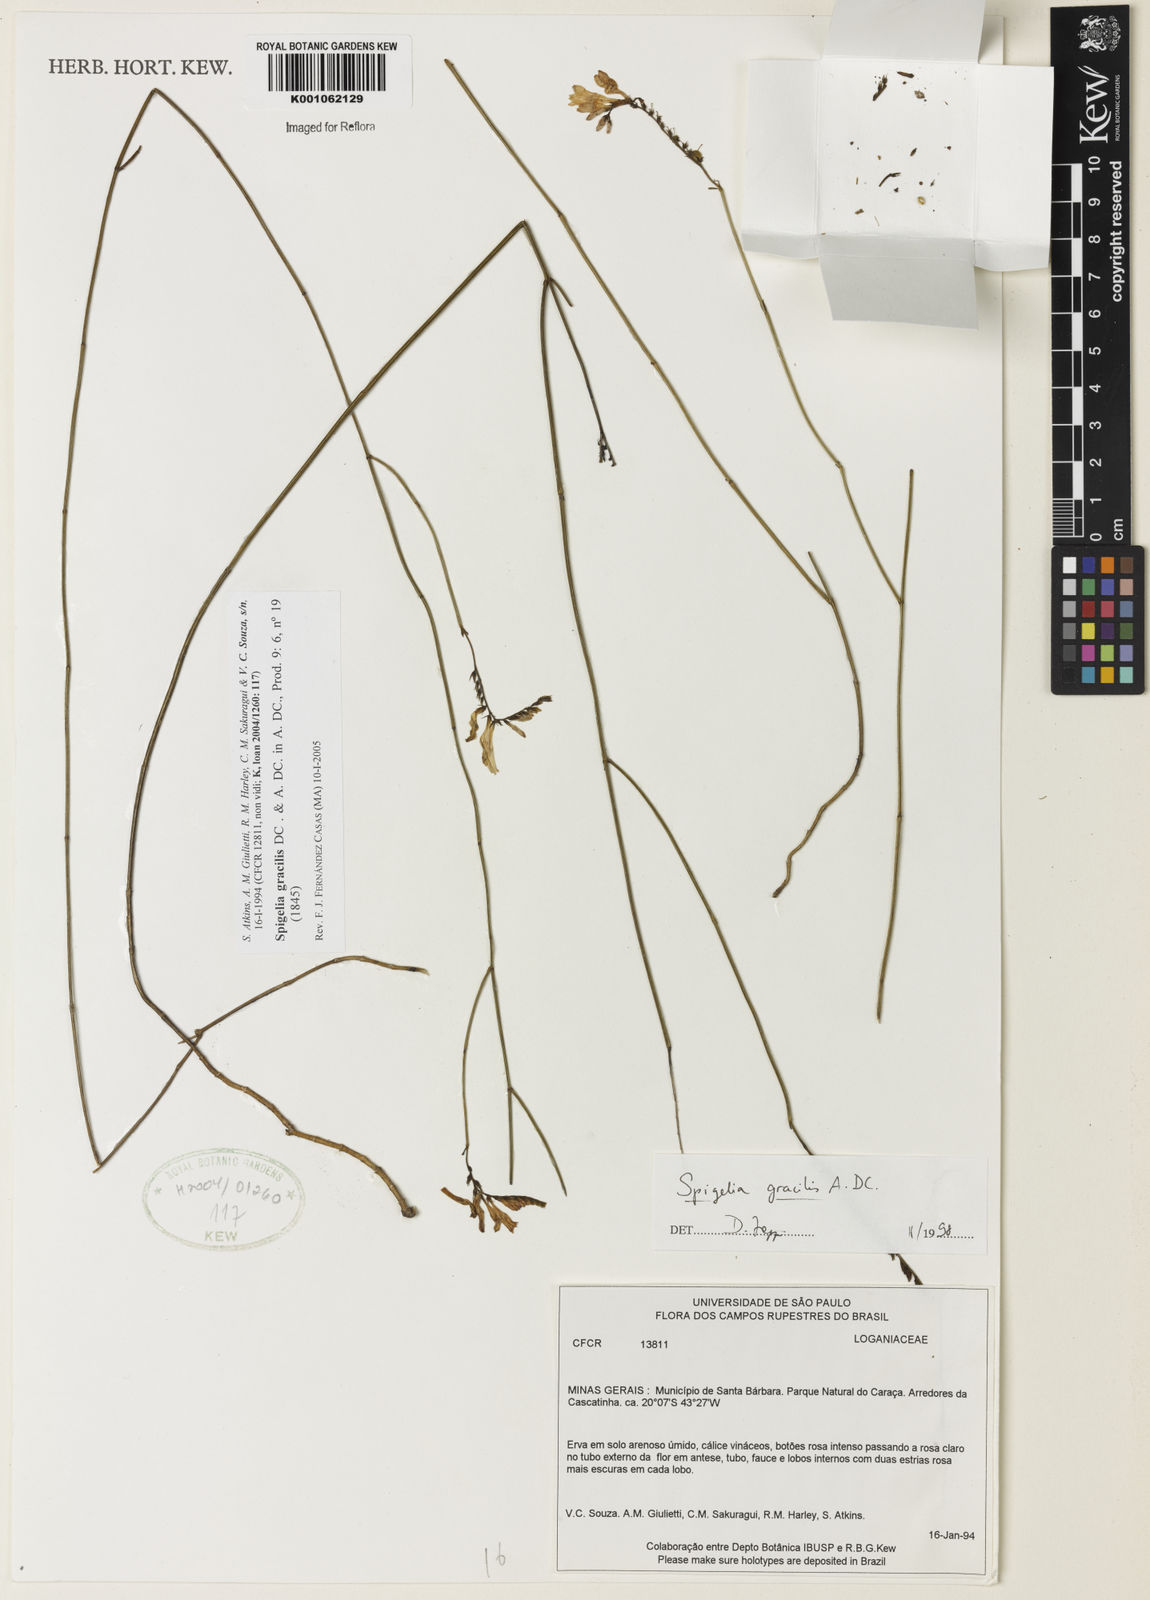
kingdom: Plantae
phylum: Tracheophyta
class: Magnoliopsida
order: Gentianales
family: Loganiaceae
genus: Spigelia
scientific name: Spigelia
